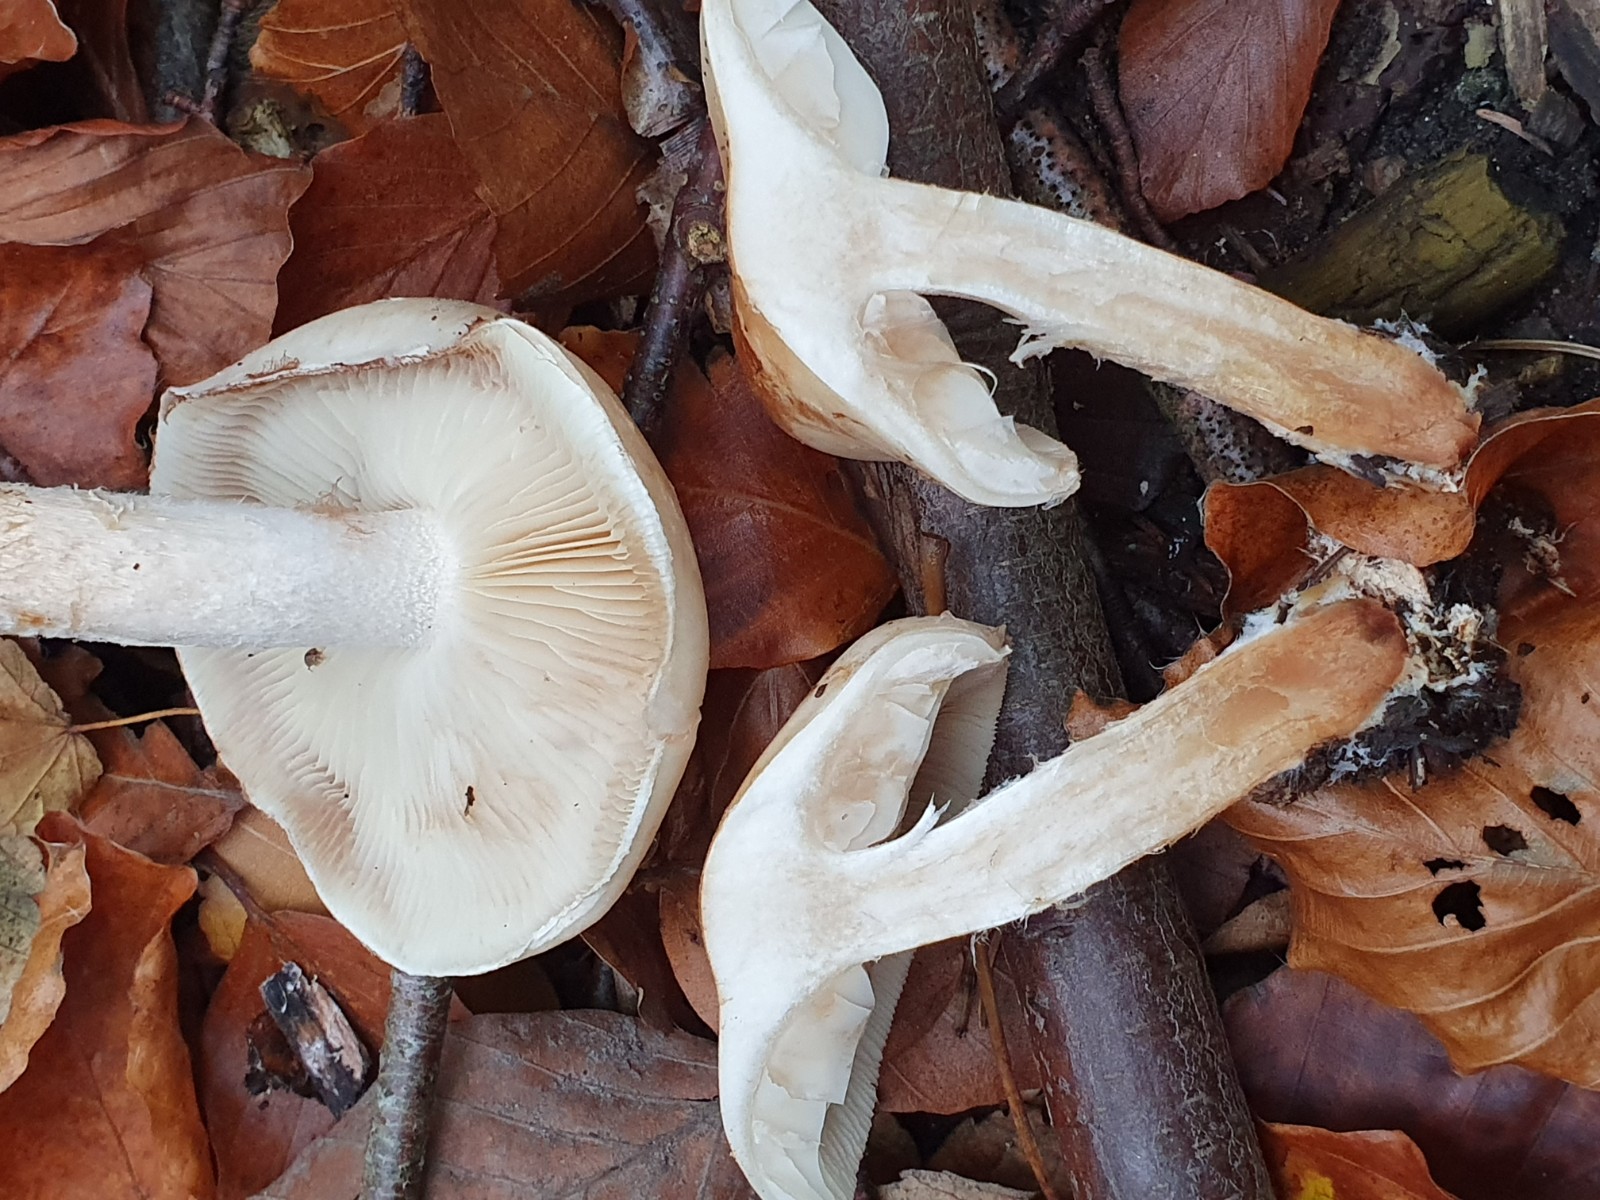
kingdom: Fungi
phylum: Basidiomycota
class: Agaricomycetes
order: Agaricales
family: Strophariaceae
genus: Pholiota
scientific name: Pholiota lenta
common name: løv-skælhat
